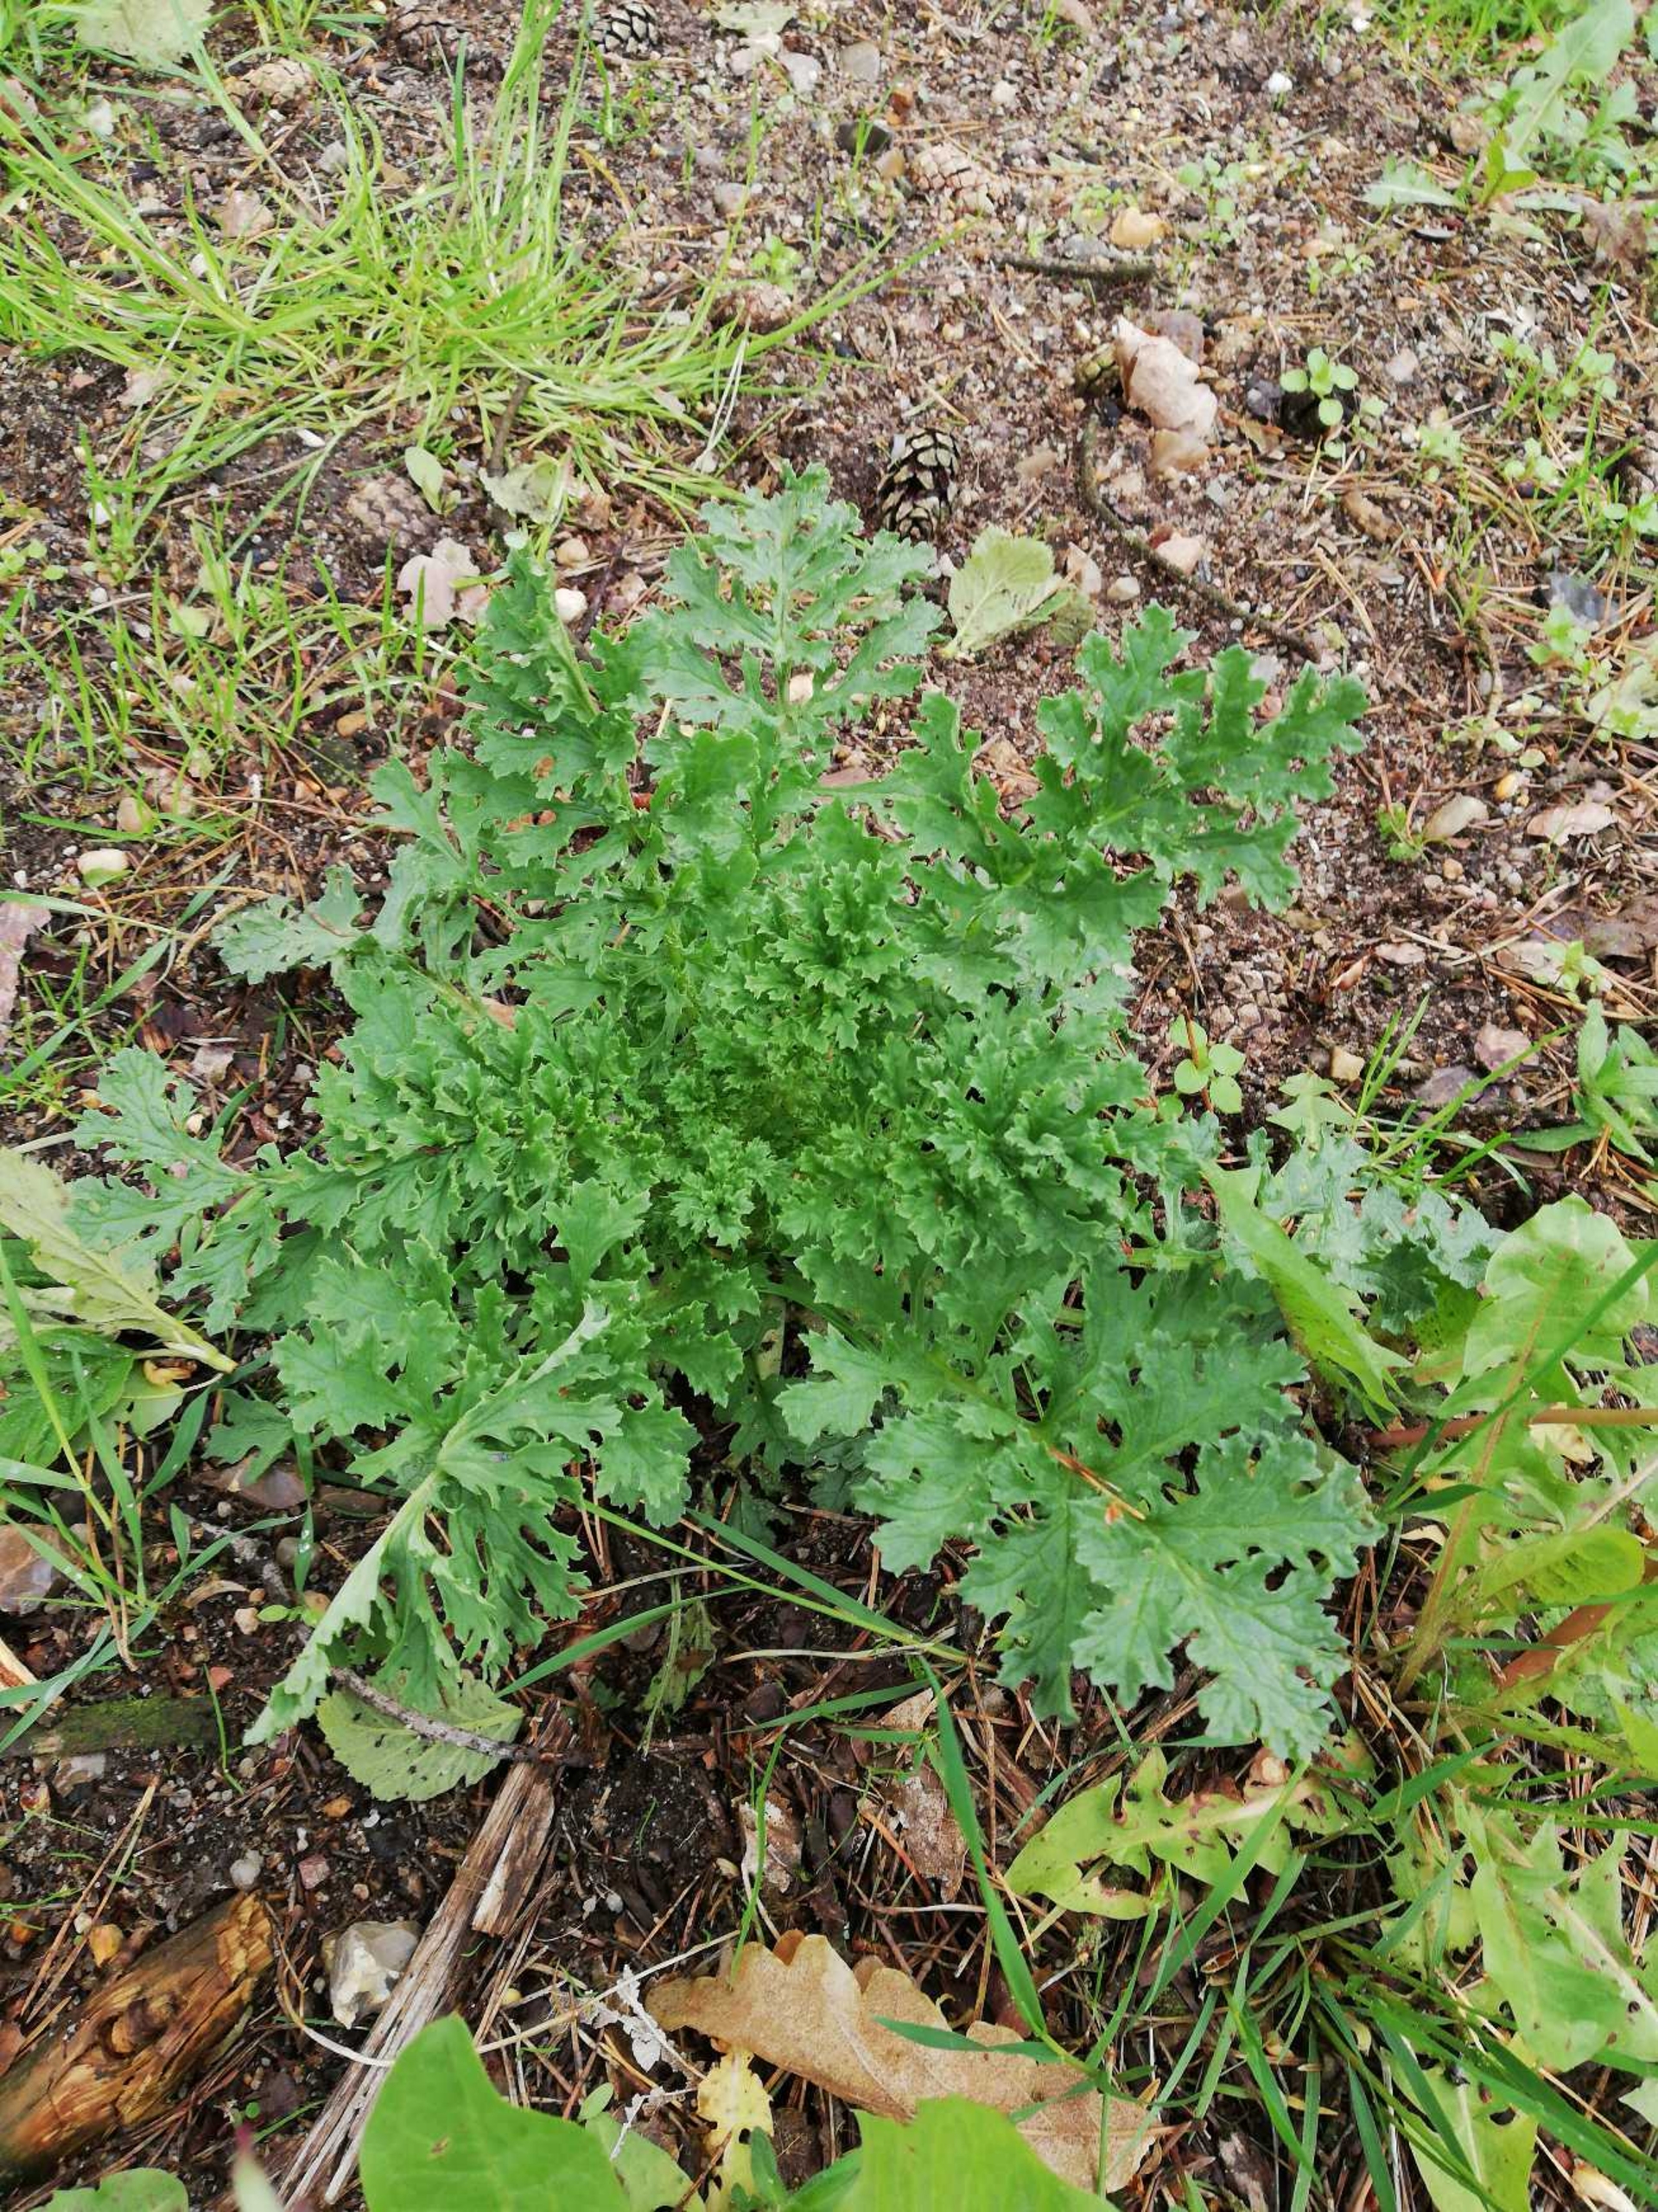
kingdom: Plantae
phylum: Tracheophyta
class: Magnoliopsida
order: Asterales
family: Asteraceae
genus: Jacobaea
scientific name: Jacobaea vulgaris
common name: Eng-brandbæger
